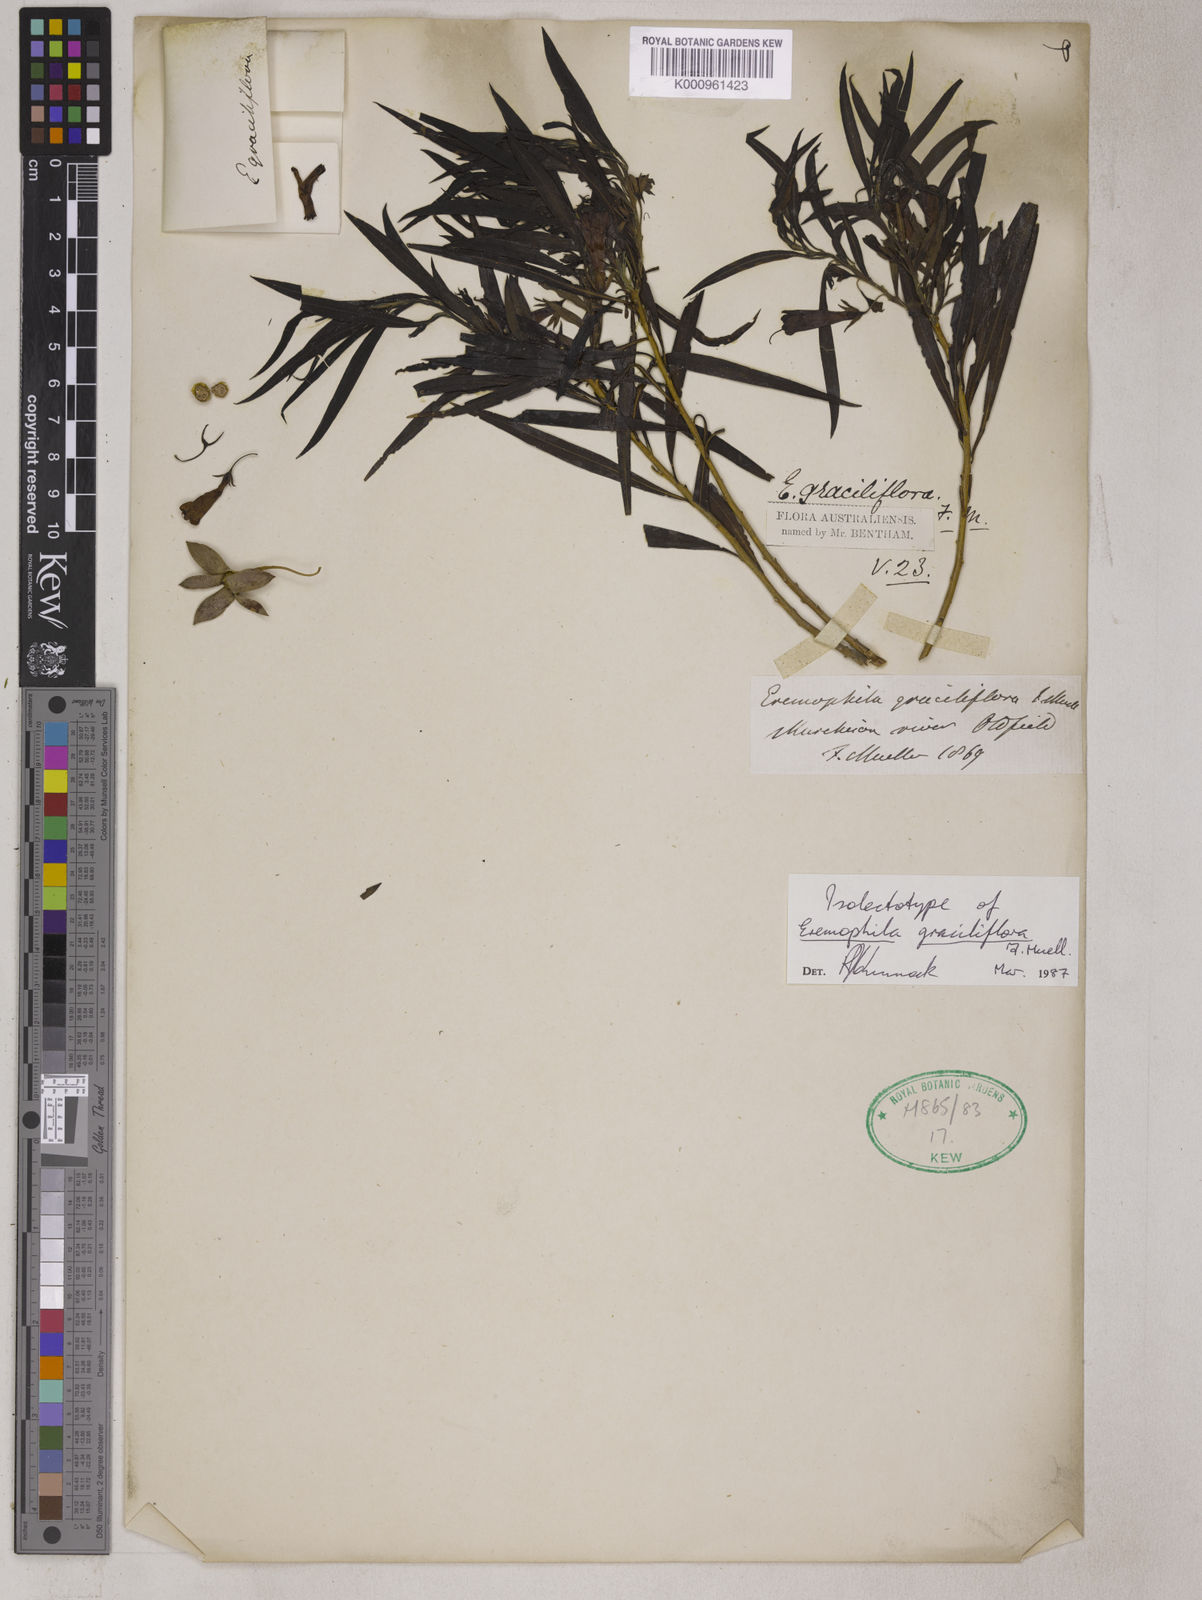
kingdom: Plantae
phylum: Tracheophyta
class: Magnoliopsida
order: Lamiales
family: Scrophulariaceae
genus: Eremophila
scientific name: Eremophila longifolia
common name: Longleaf emubush
